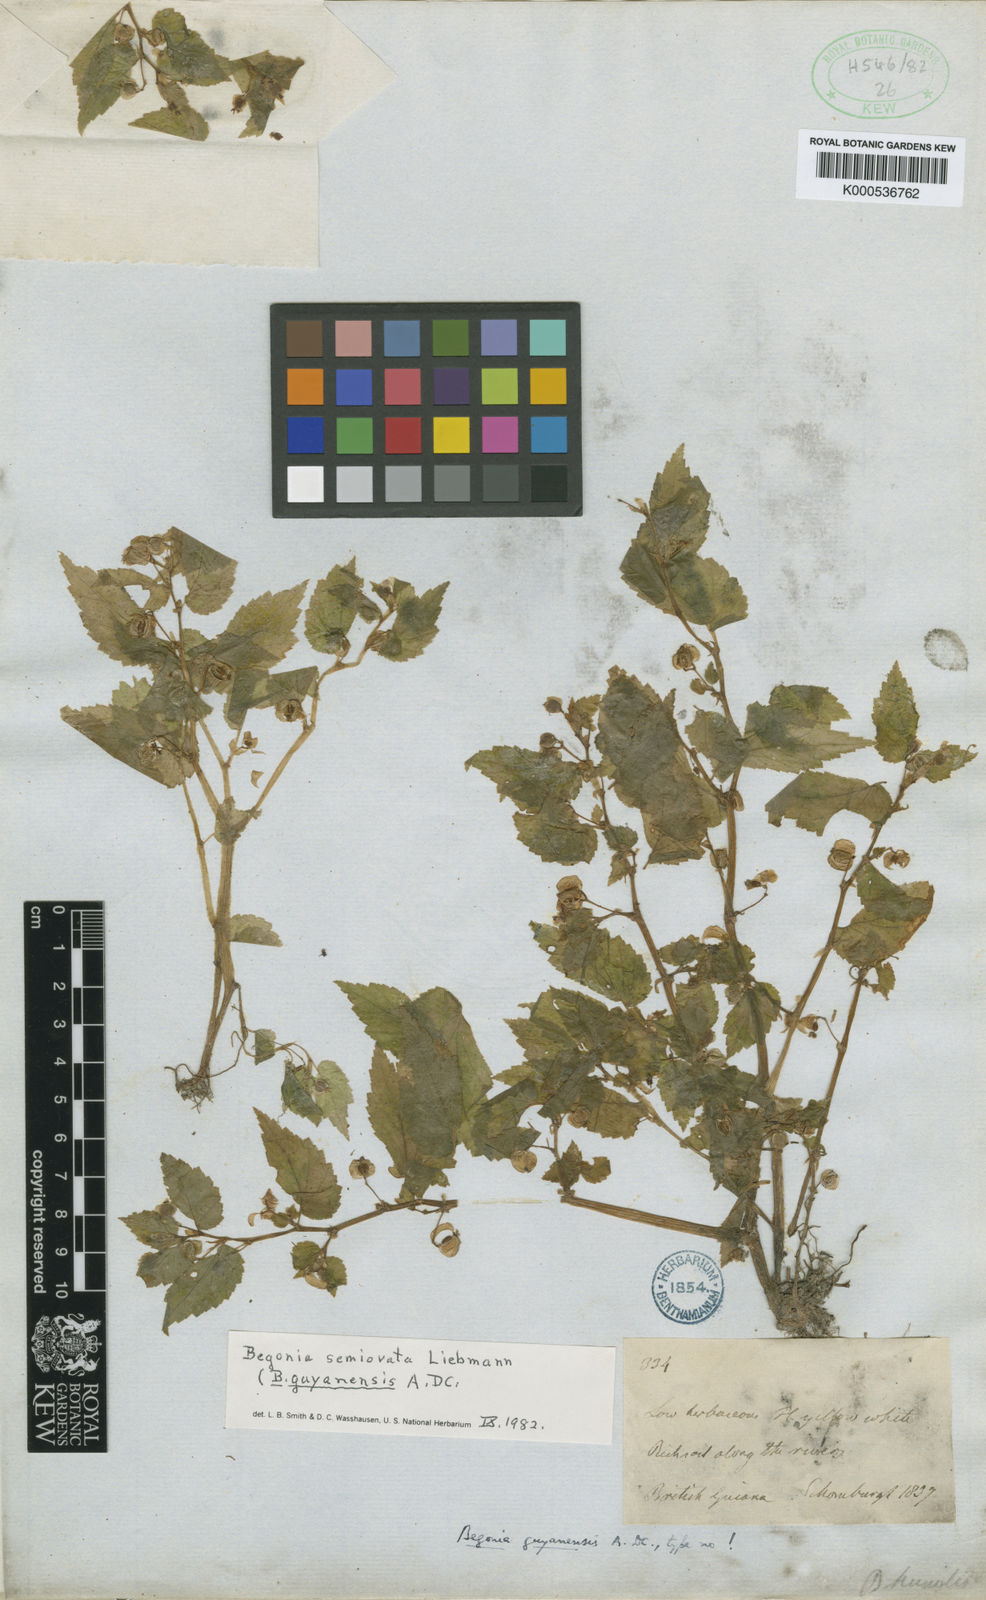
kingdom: Plantae
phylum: Tracheophyta
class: Magnoliopsida
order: Cucurbitales
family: Begoniaceae
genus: Begonia
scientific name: Begonia semiovata
